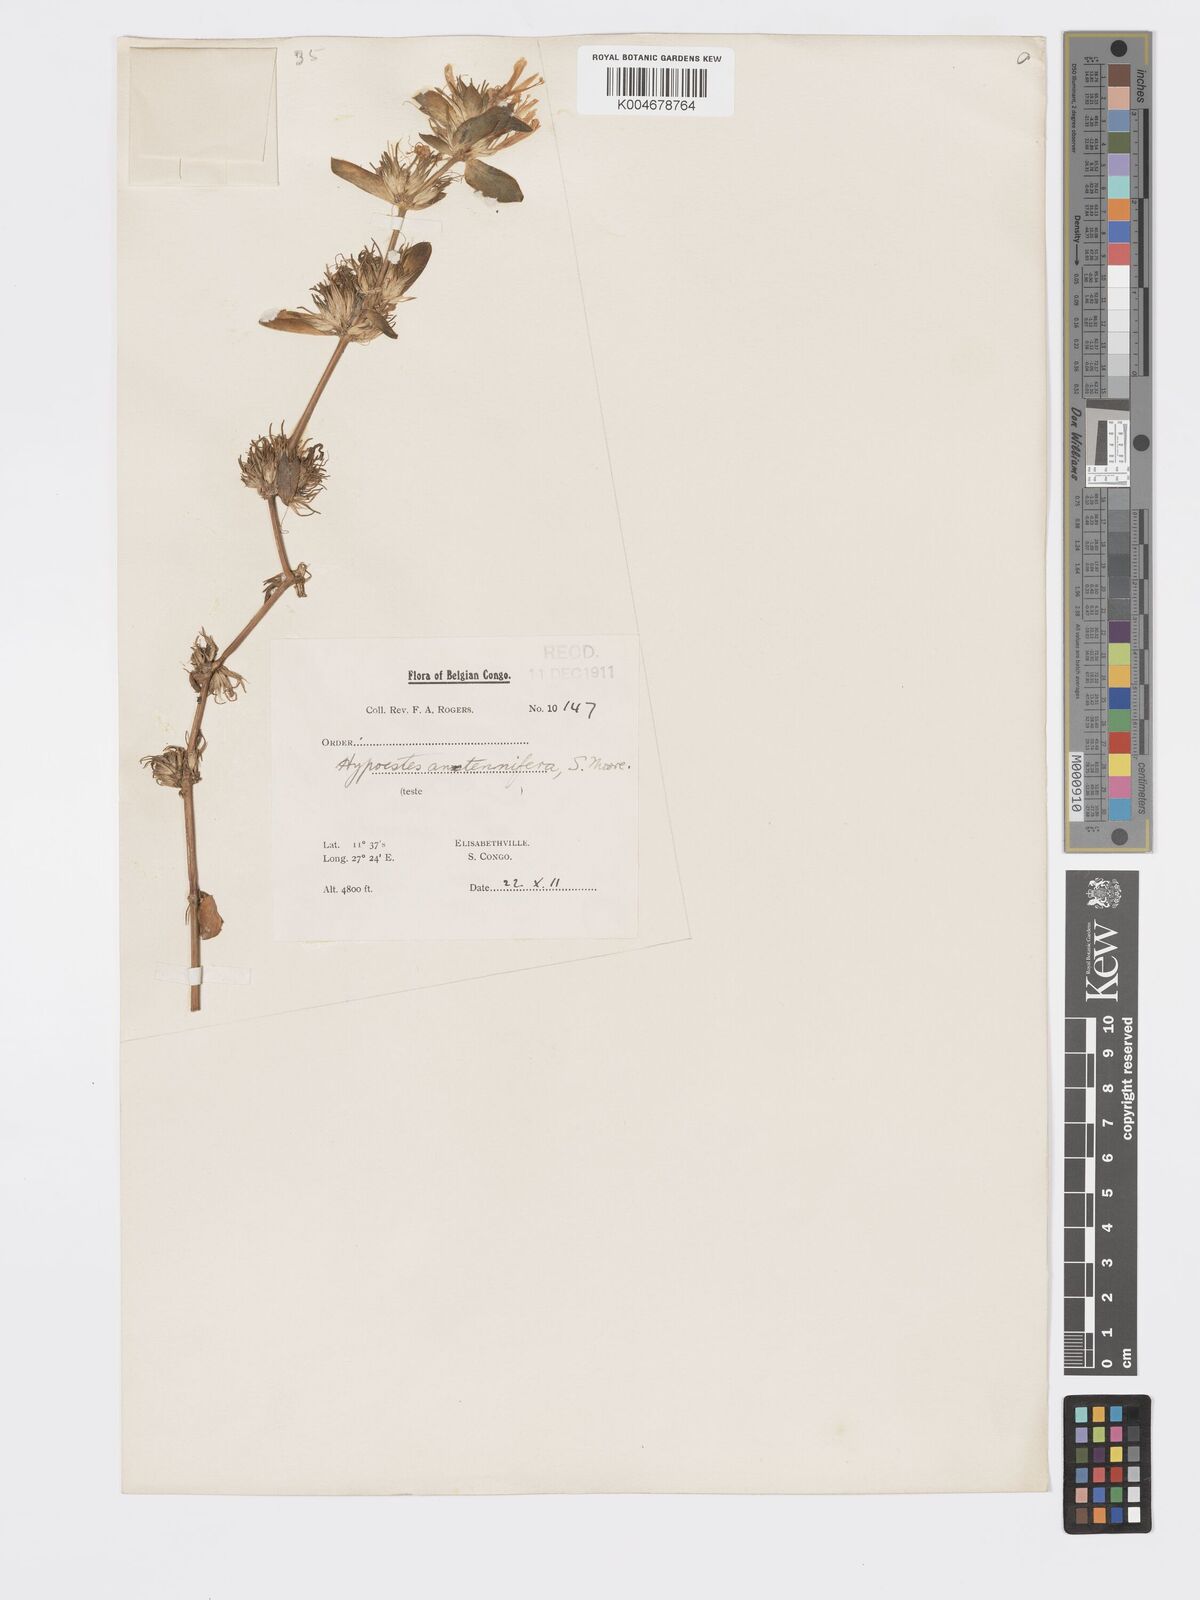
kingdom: Plantae
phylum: Tracheophyta
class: Magnoliopsida
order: Lamiales
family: Acanthaceae
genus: Hypoestes
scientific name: Hypoestes aristata
